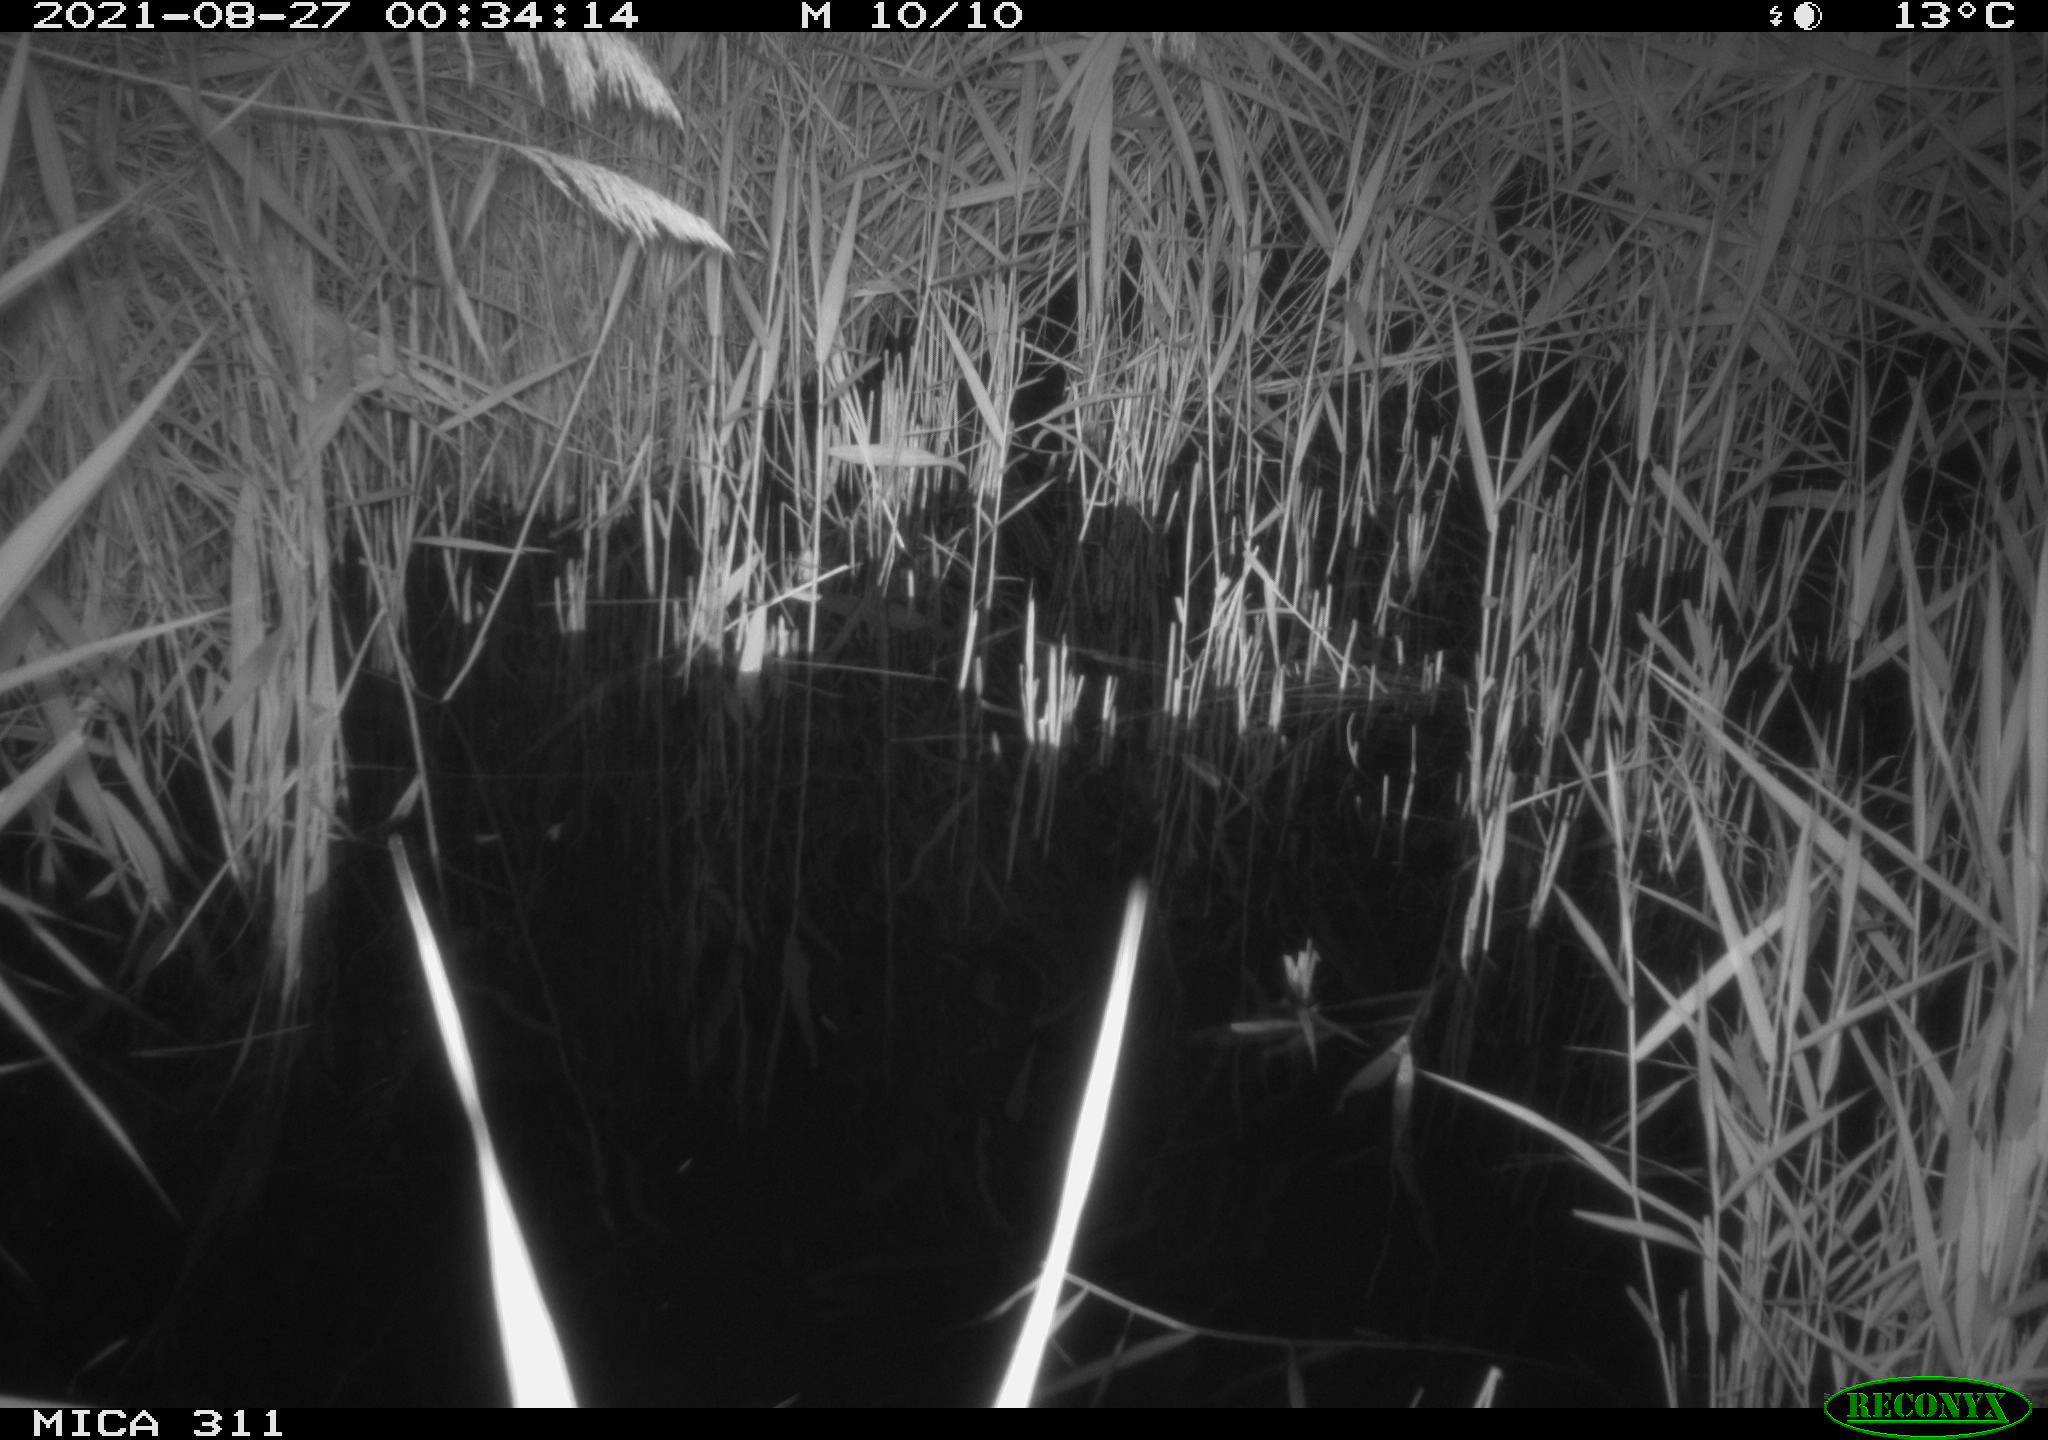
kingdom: Animalia
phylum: Chordata
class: Mammalia
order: Rodentia
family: Muridae
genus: Rattus
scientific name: Rattus norvegicus
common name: Brown rat
